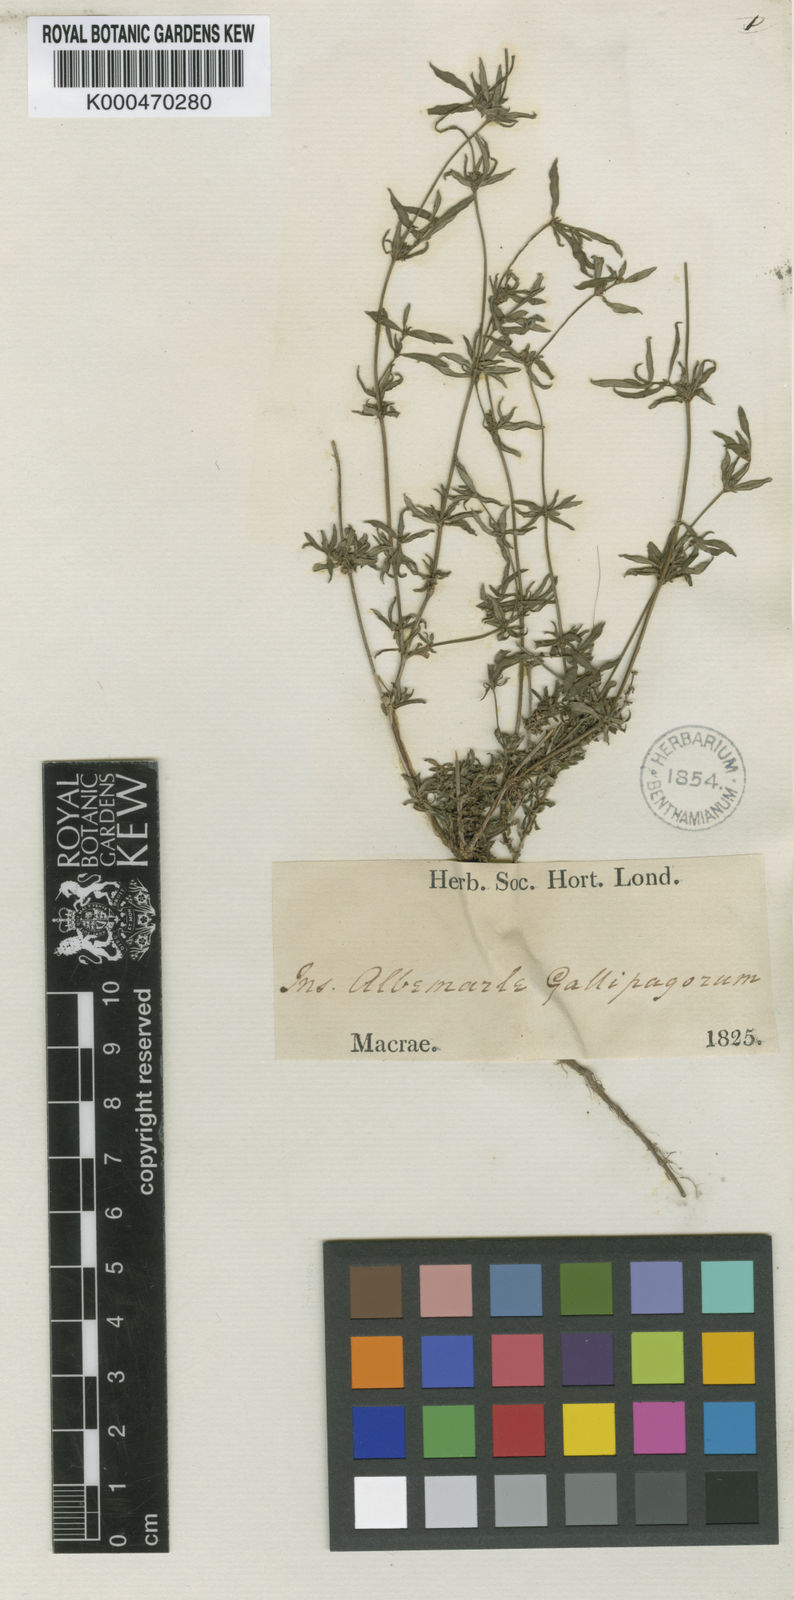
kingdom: Plantae
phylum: Tracheophyta
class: Magnoliopsida
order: Gentianales
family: Rubiaceae
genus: Spermacoce
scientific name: Spermacoce suberecta
